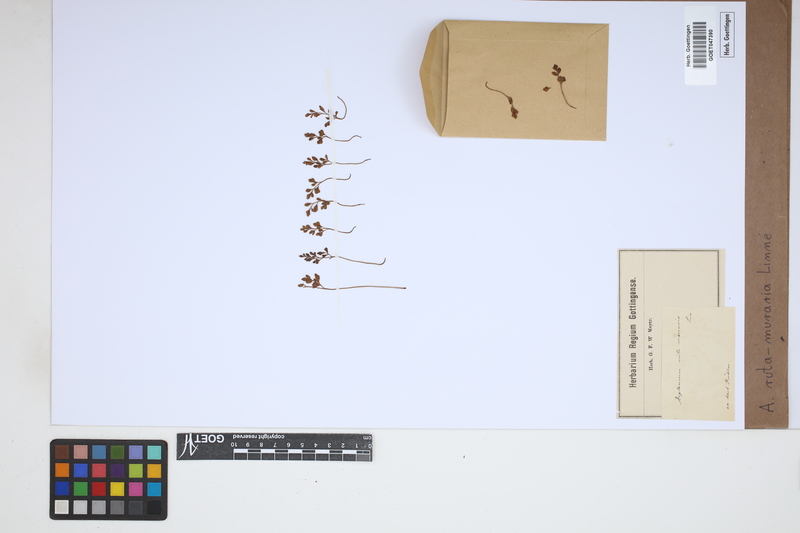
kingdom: Plantae
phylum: Tracheophyta
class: Polypodiopsida
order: Polypodiales
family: Aspleniaceae
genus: Asplenium
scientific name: Asplenium ruta-muraria
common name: Wall-rue
